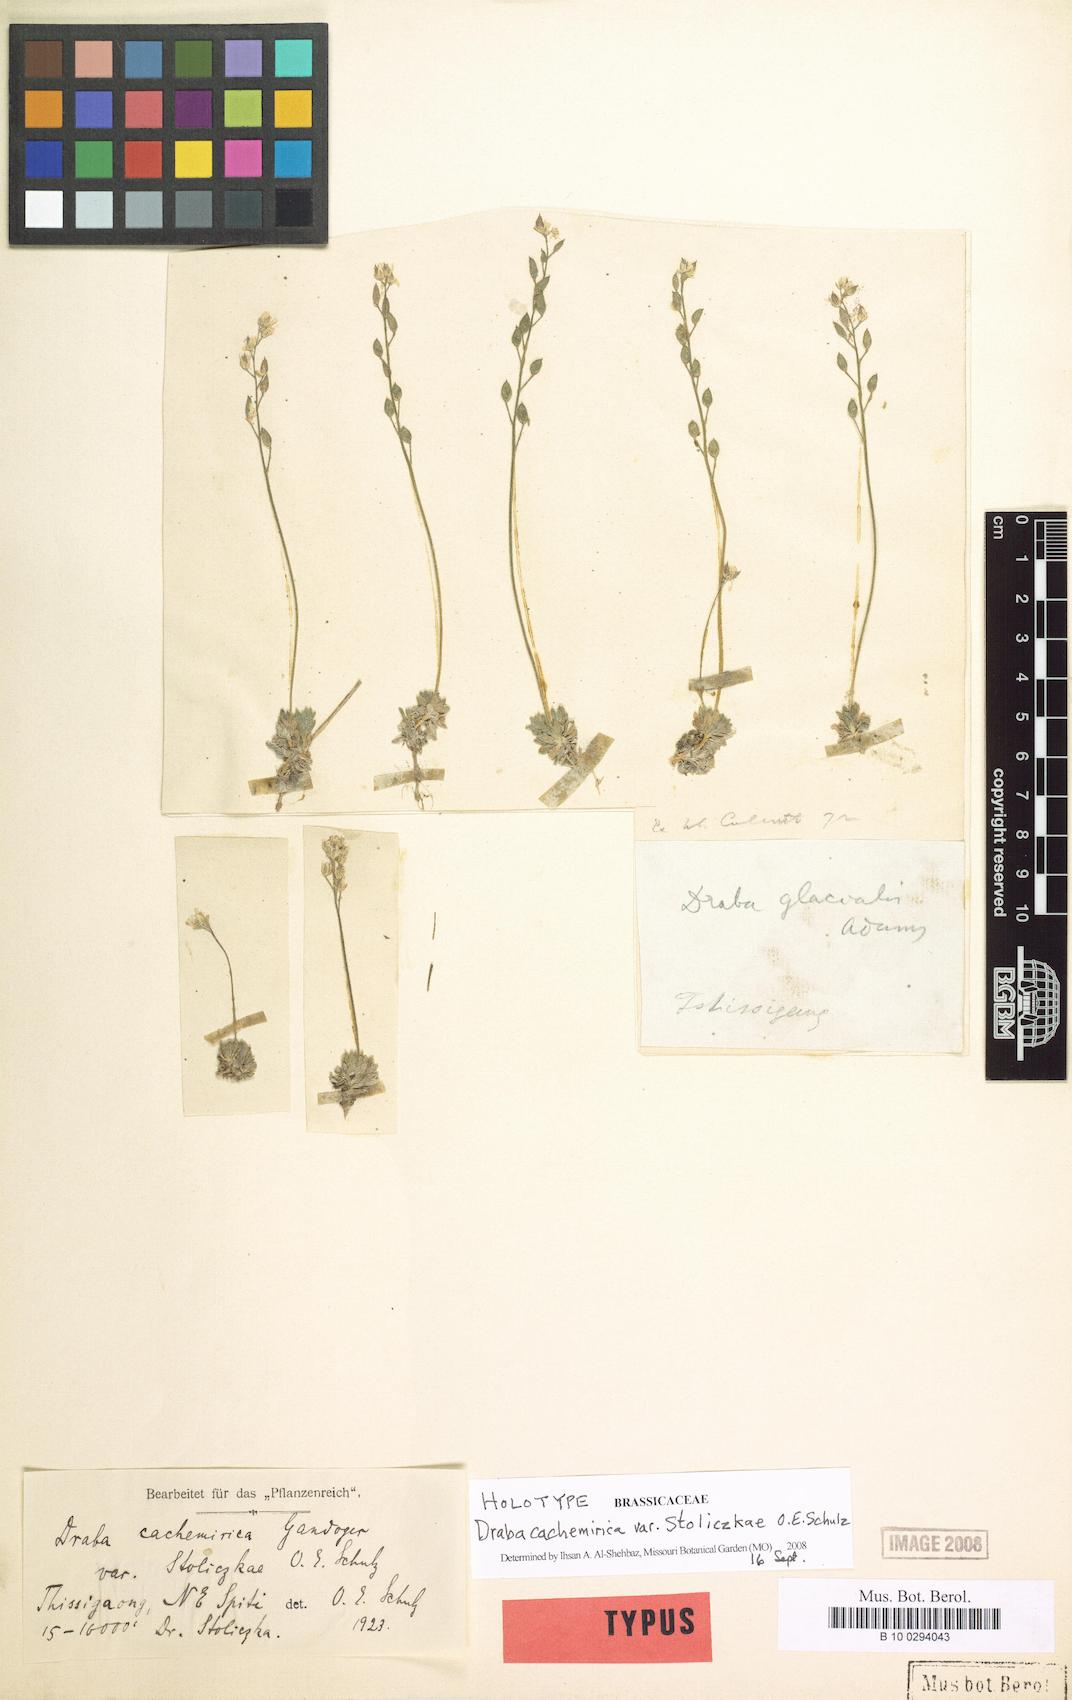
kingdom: Plantae
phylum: Tracheophyta
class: Magnoliopsida
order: Brassicales
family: Brassicaceae
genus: Draba
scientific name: Draba cachemirica
